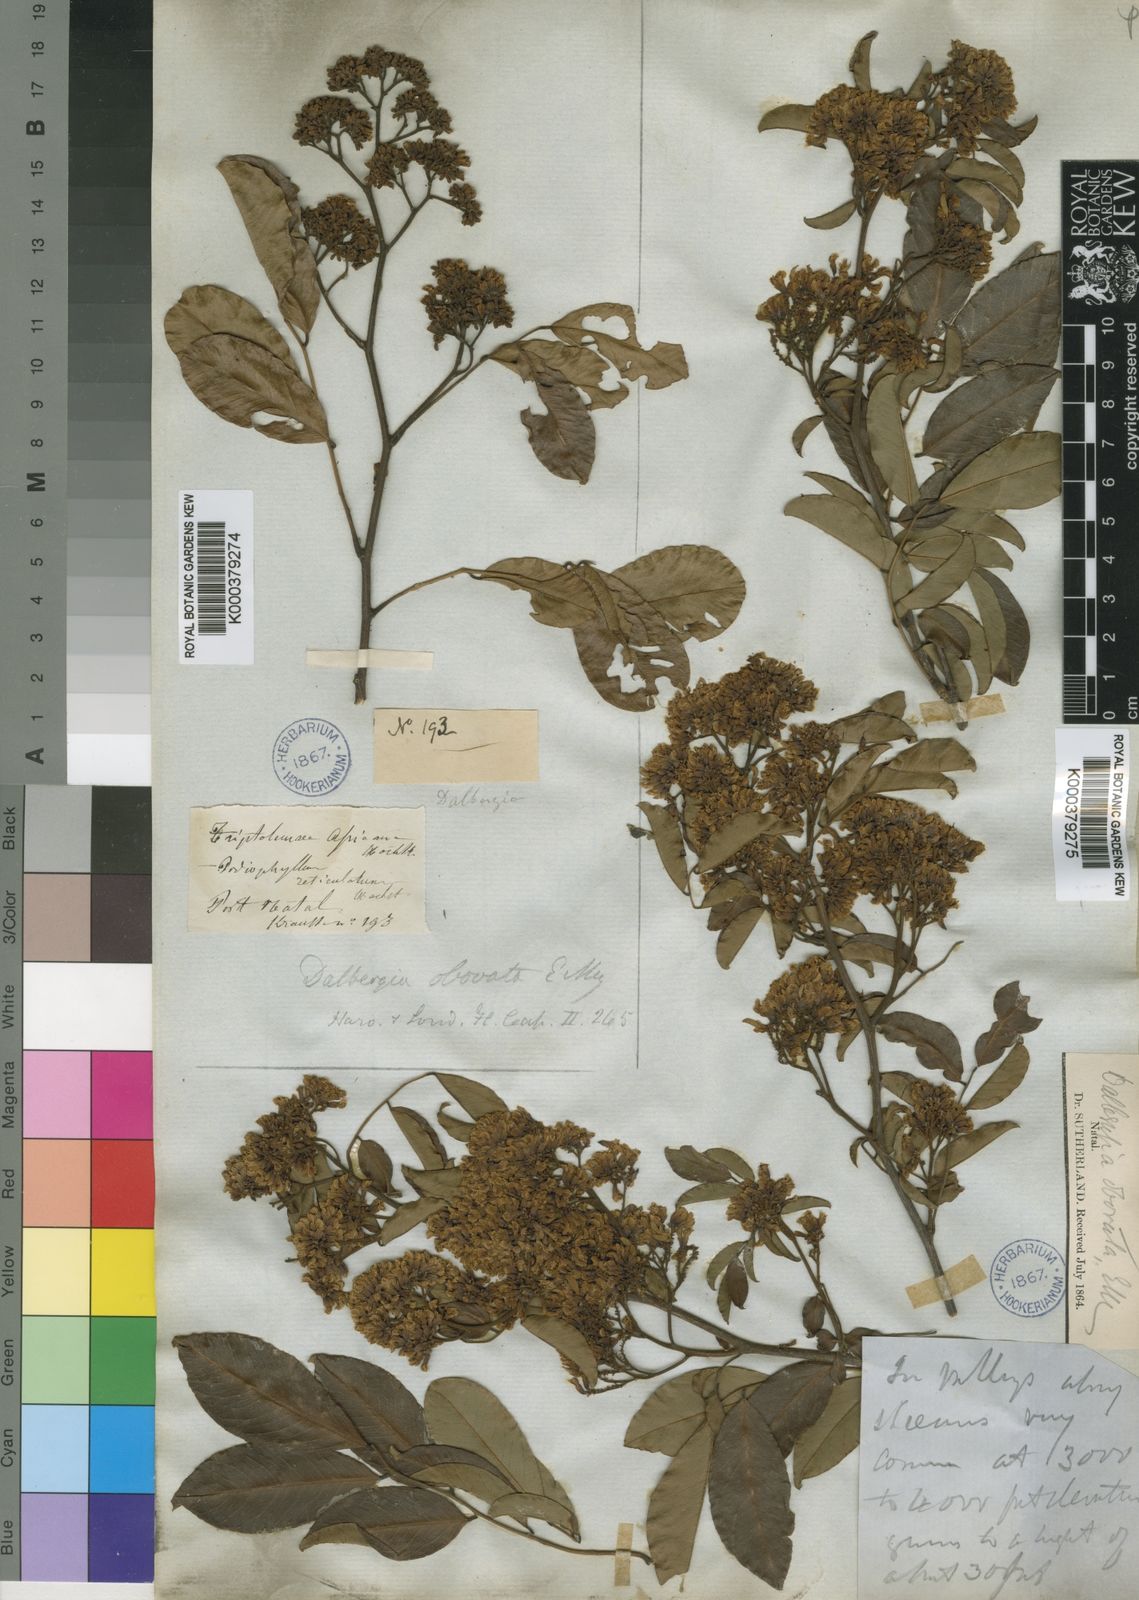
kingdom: Plantae
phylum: Tracheophyta
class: Magnoliopsida
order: Fabales
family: Fabaceae
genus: Dalbergia
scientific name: Dalbergia obovata
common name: Climbing flat-bean
